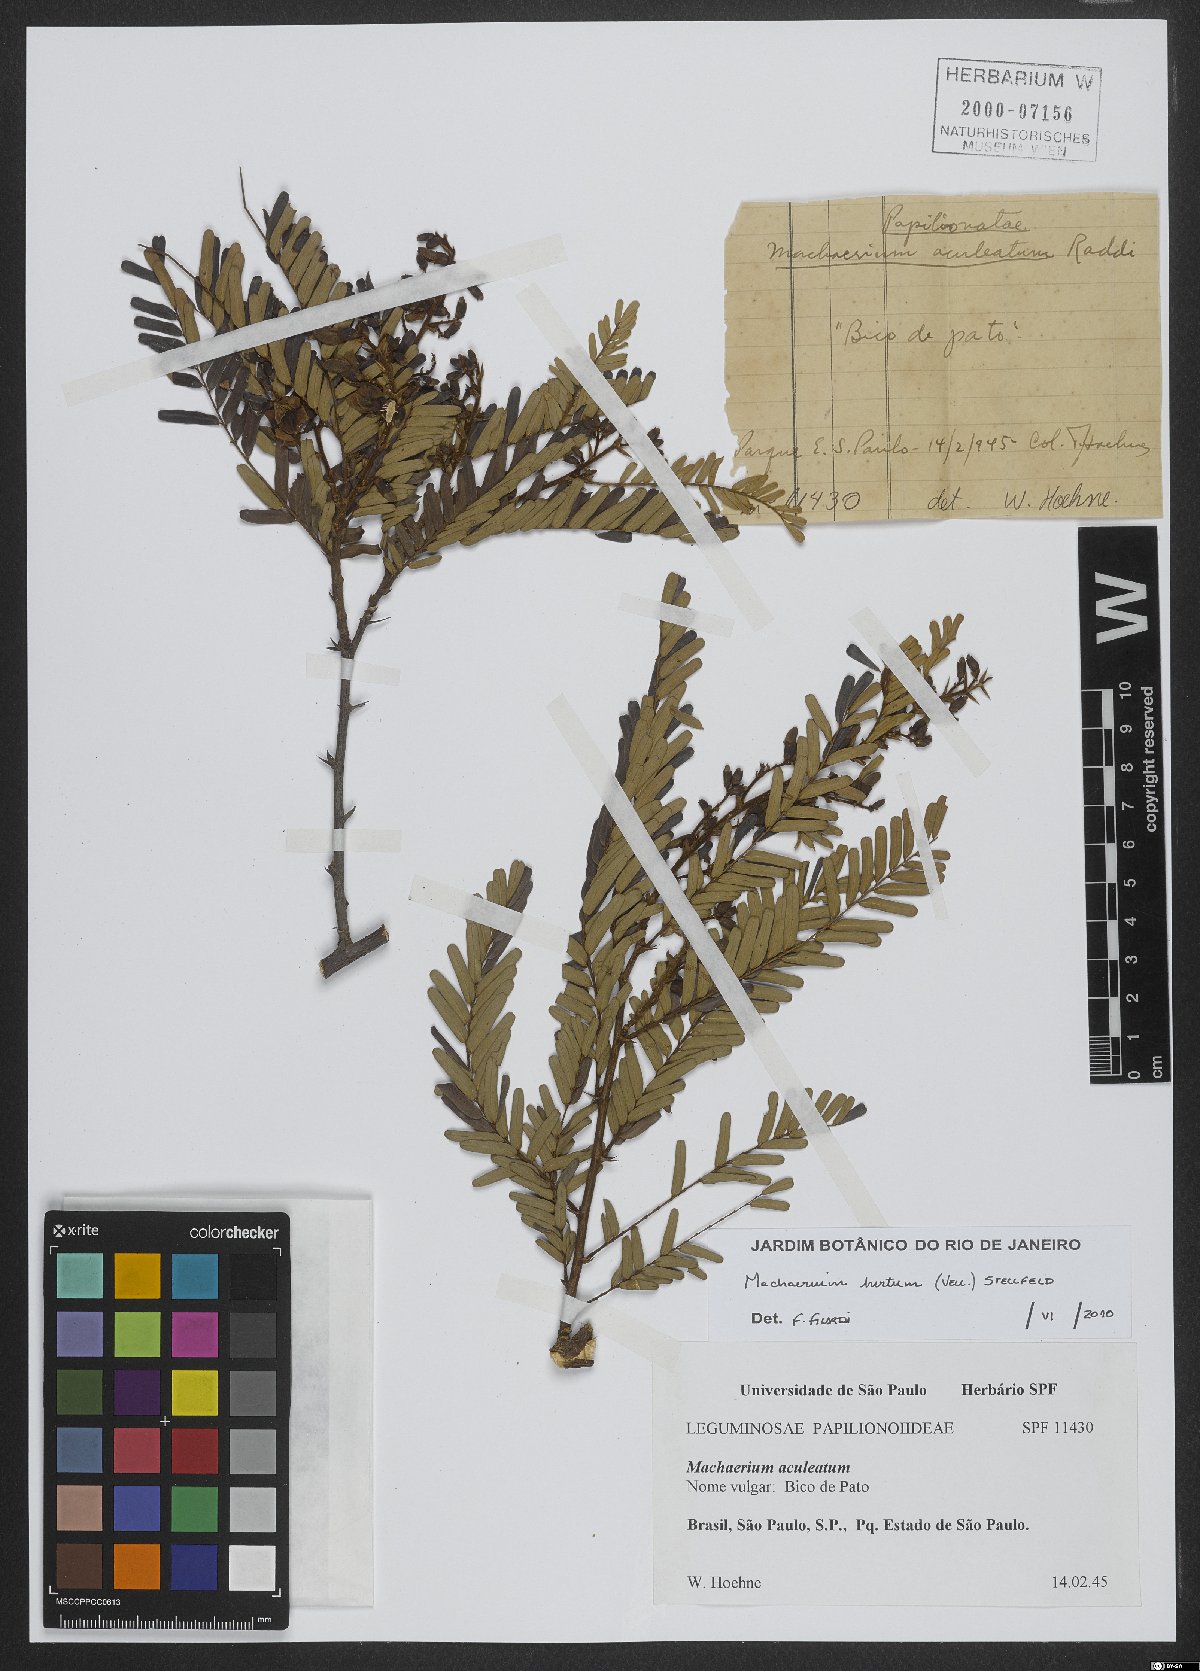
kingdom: Plantae
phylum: Tracheophyta
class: Magnoliopsida
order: Fabales
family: Fabaceae
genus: Machaerium
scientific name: Machaerium hirtum
